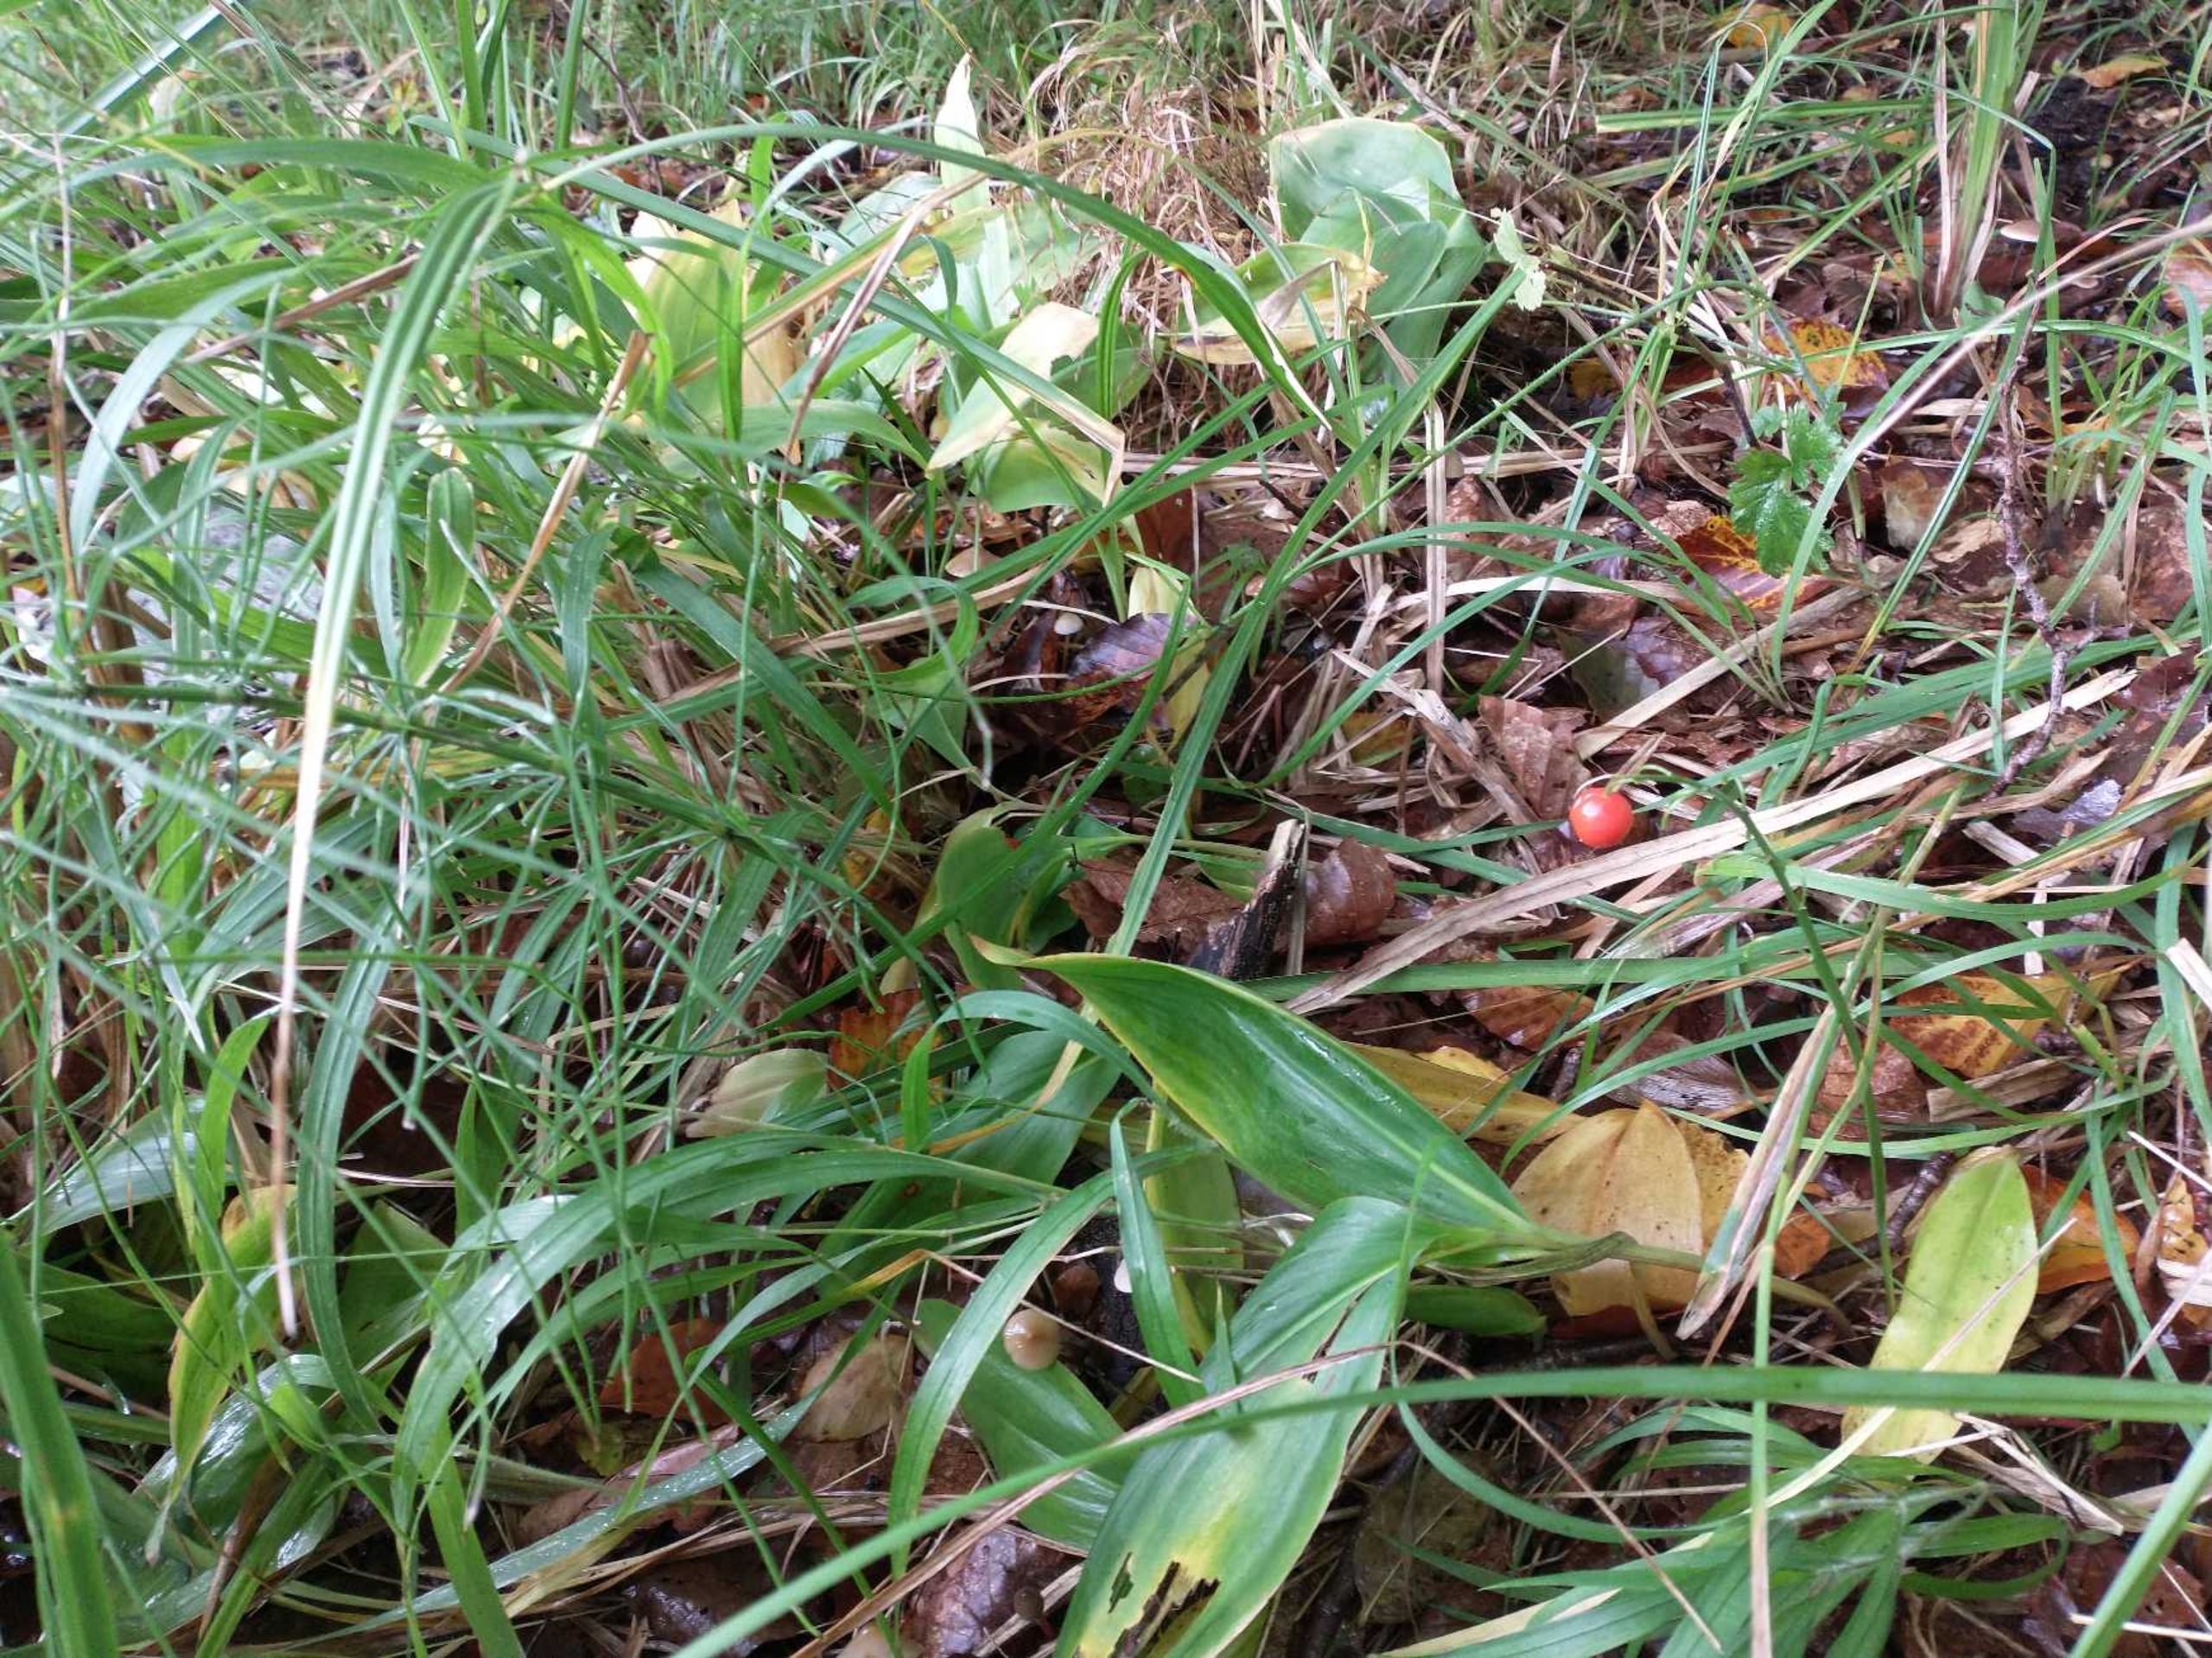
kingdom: Plantae
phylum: Tracheophyta
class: Liliopsida
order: Asparagales
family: Asparagaceae
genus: Convallaria
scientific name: Convallaria majalis
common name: Liljekonval
